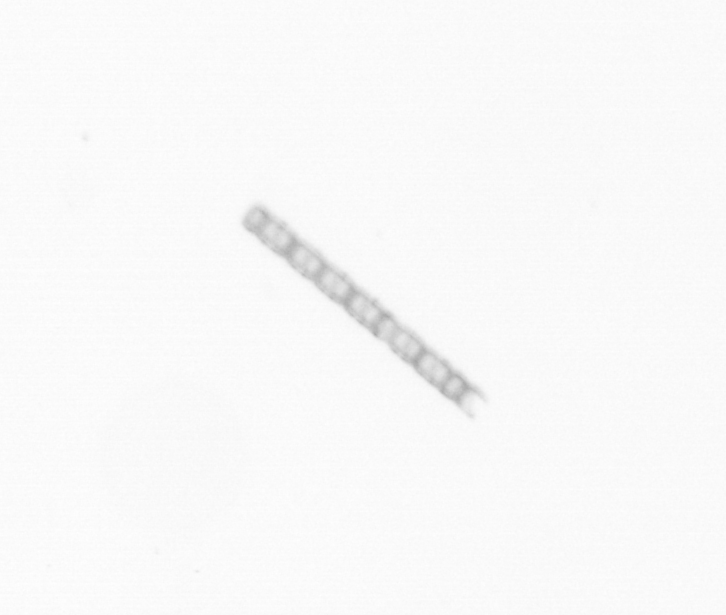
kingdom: Chromista
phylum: Ochrophyta
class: Bacillariophyceae
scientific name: Bacillariophyceae
